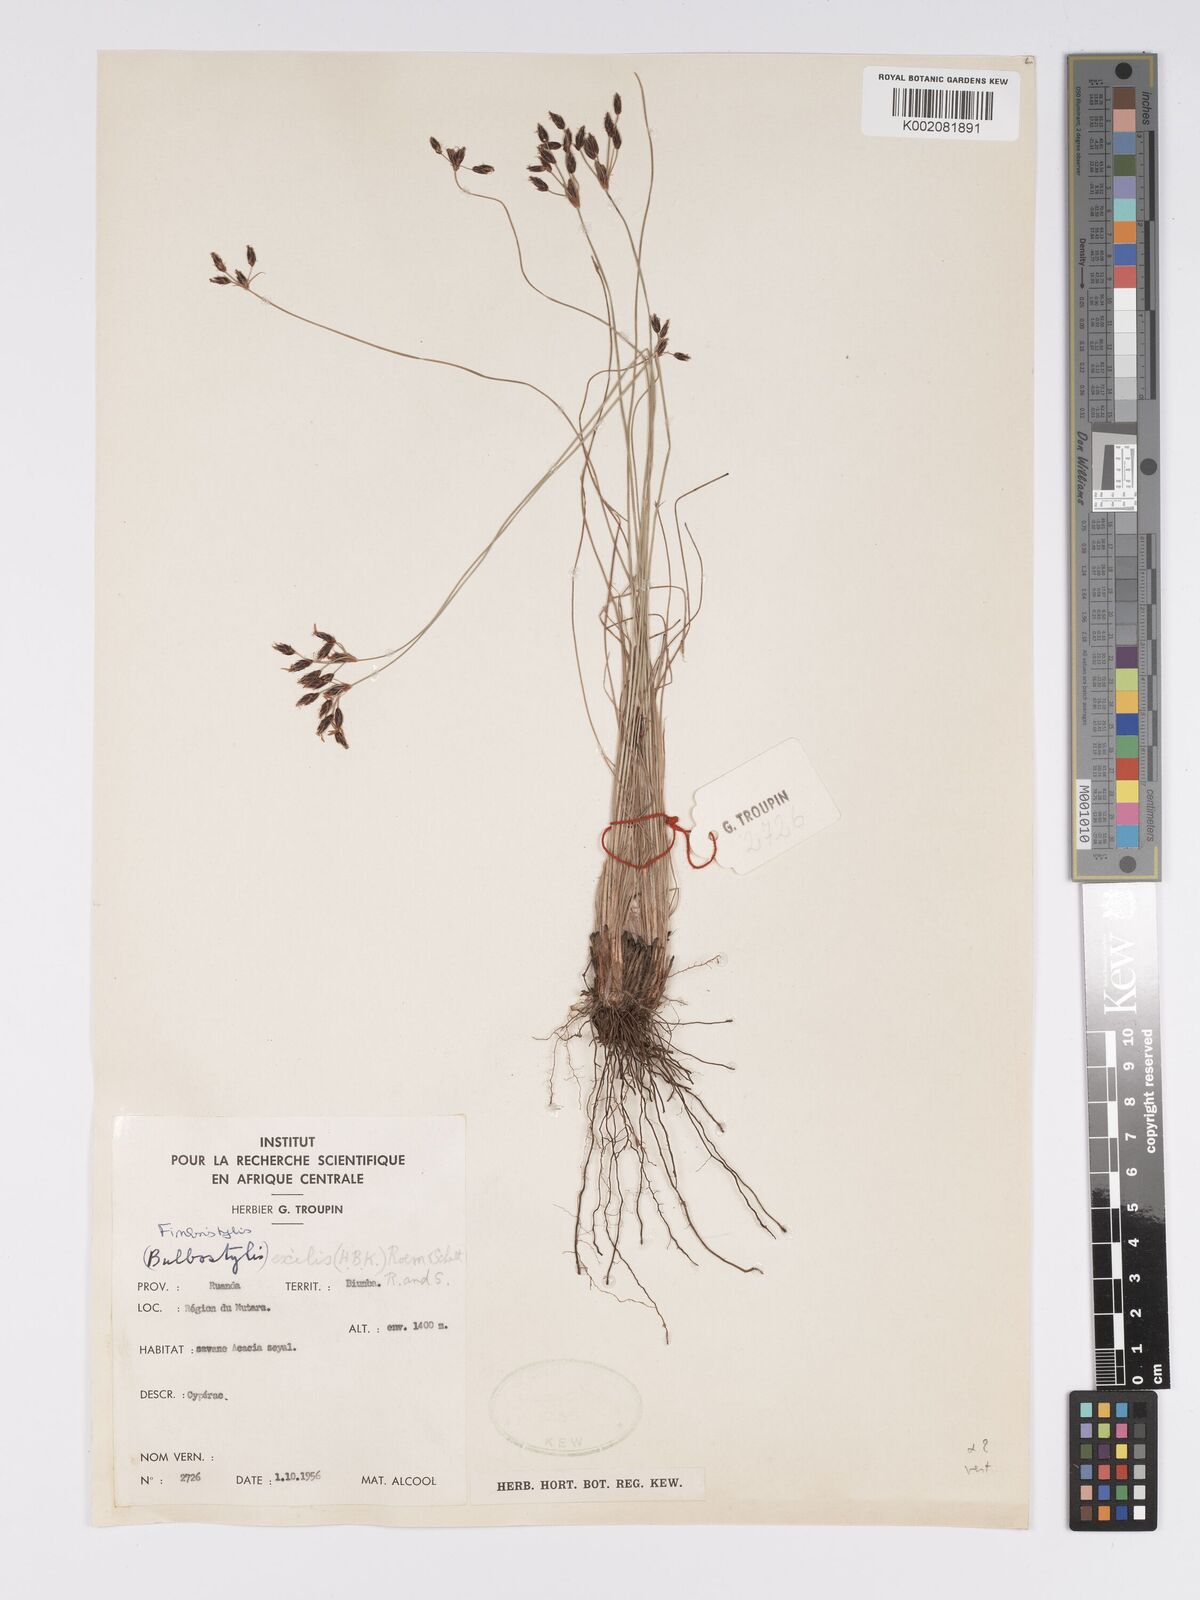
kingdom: Plantae
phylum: Tracheophyta
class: Liliopsida
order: Poales
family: Cyperaceae
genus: Bulbostylis
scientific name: Bulbostylis hispidula
